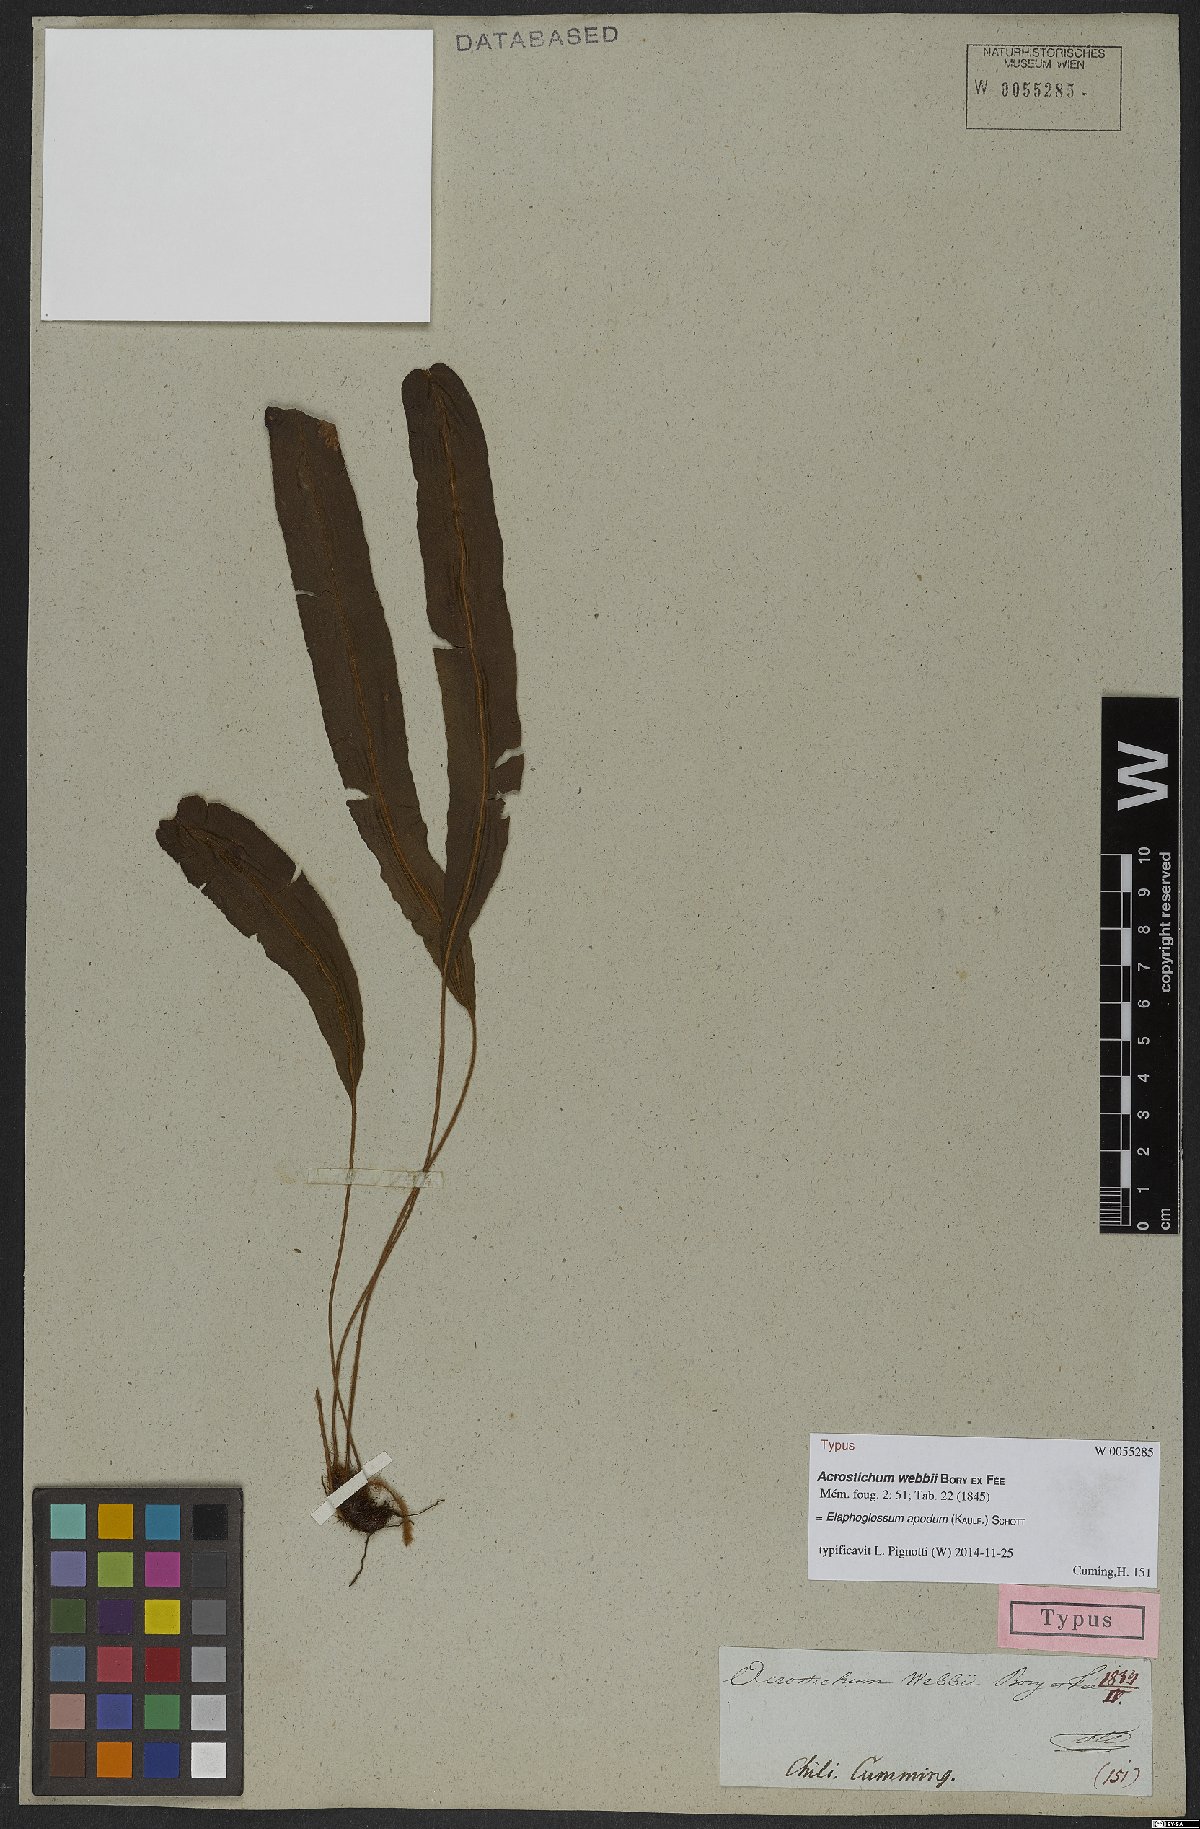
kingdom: Plantae
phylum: Tracheophyta
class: Polypodiopsida
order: Polypodiales
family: Dryopteridaceae
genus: Elaphoglossum
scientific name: Elaphoglossum apodum
